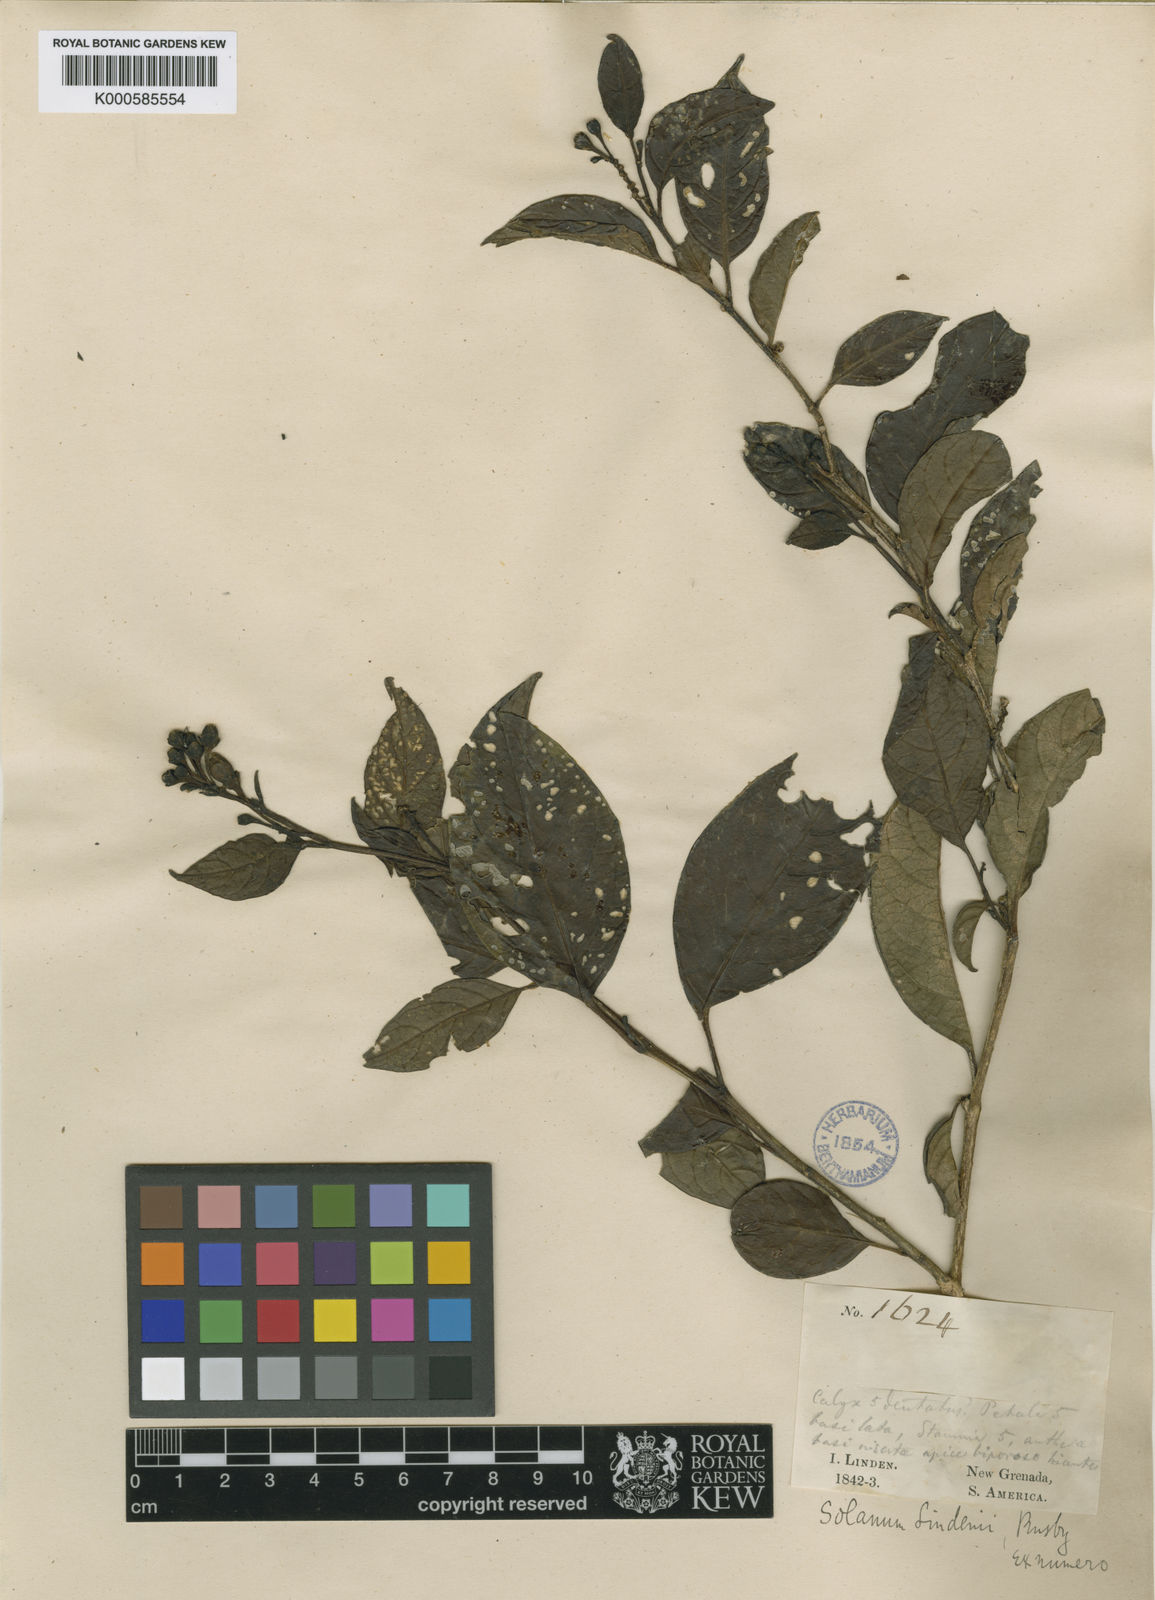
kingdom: Plantae
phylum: Tracheophyta
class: Magnoliopsida
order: Solanales
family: Solanaceae
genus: Solanum
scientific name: Solanum lindenii
